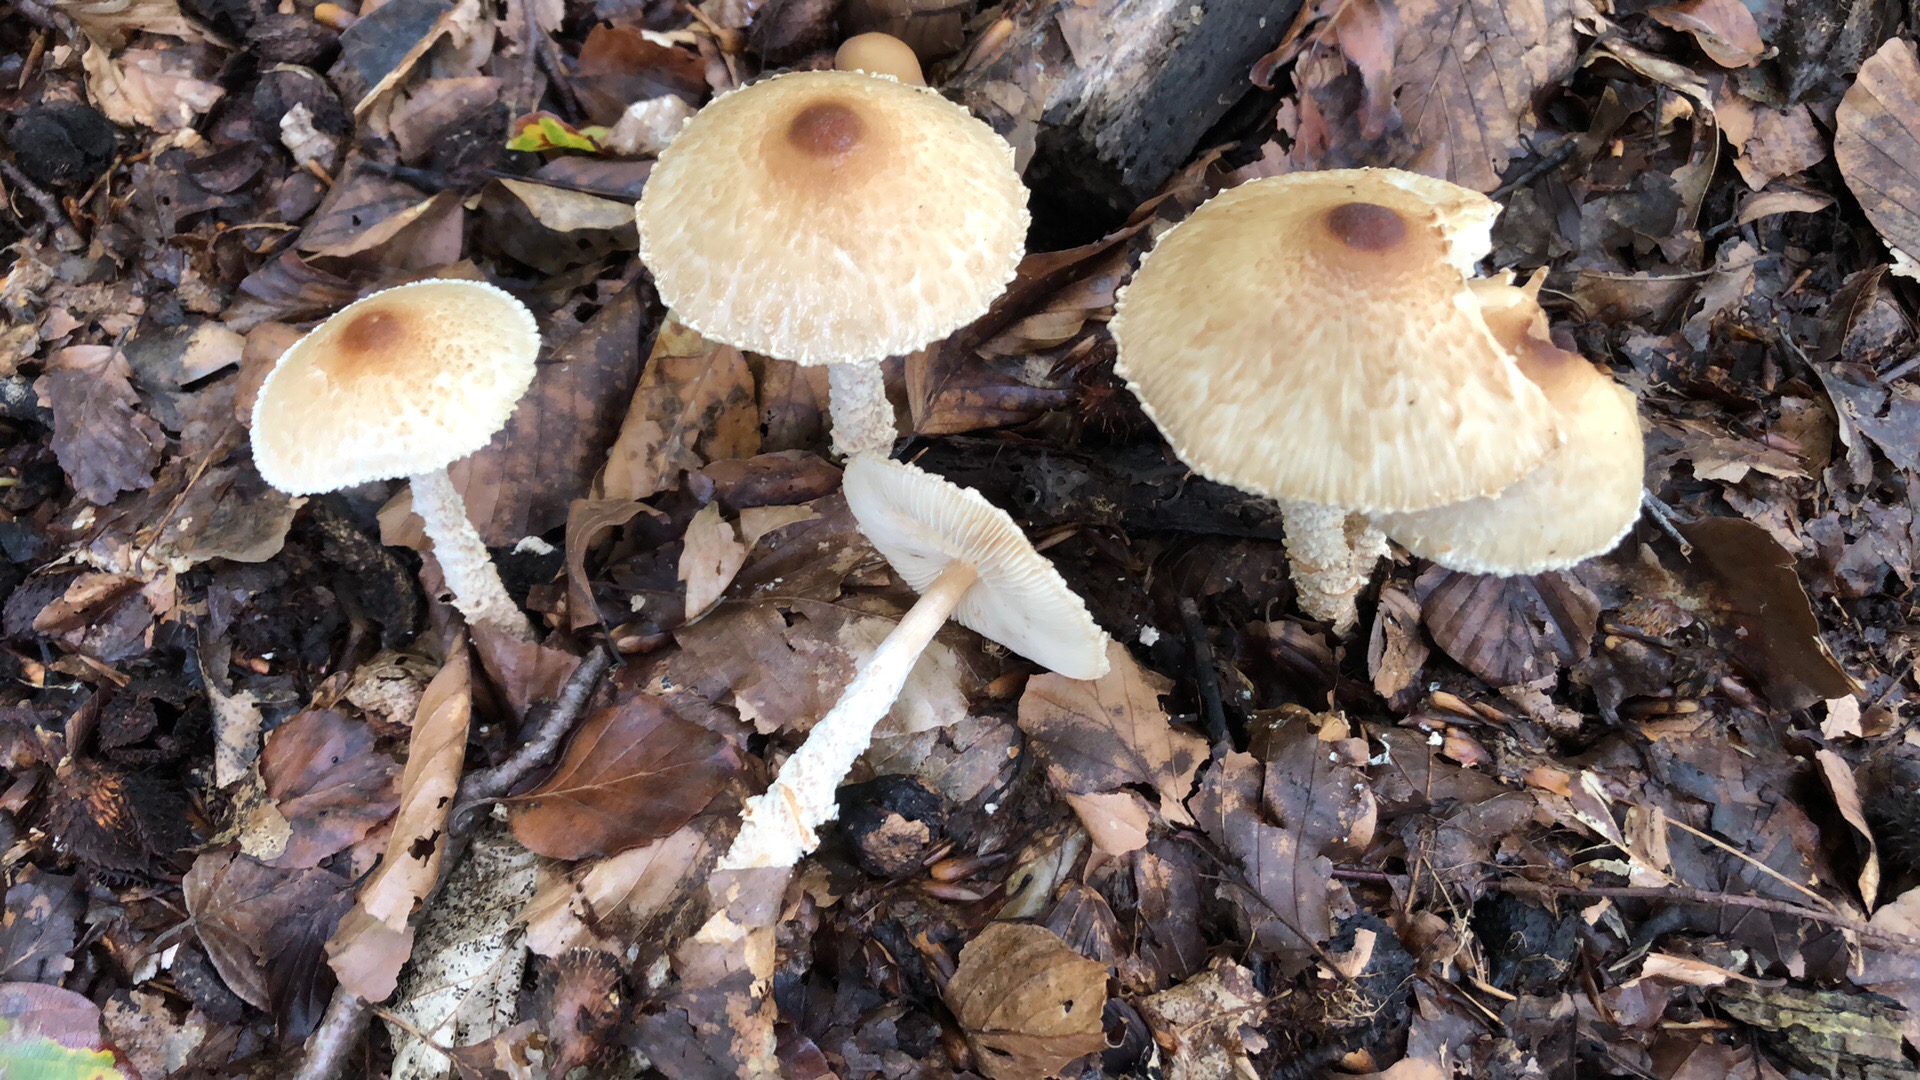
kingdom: Fungi
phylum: Basidiomycota
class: Agaricomycetes
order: Agaricales
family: Agaricaceae
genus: Lepiota
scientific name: Lepiota magnispora
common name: gulfnugget parasolhat
